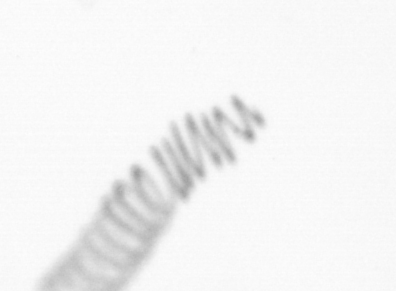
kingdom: Chromista
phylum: Ochrophyta
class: Bacillariophyceae
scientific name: Bacillariophyceae
